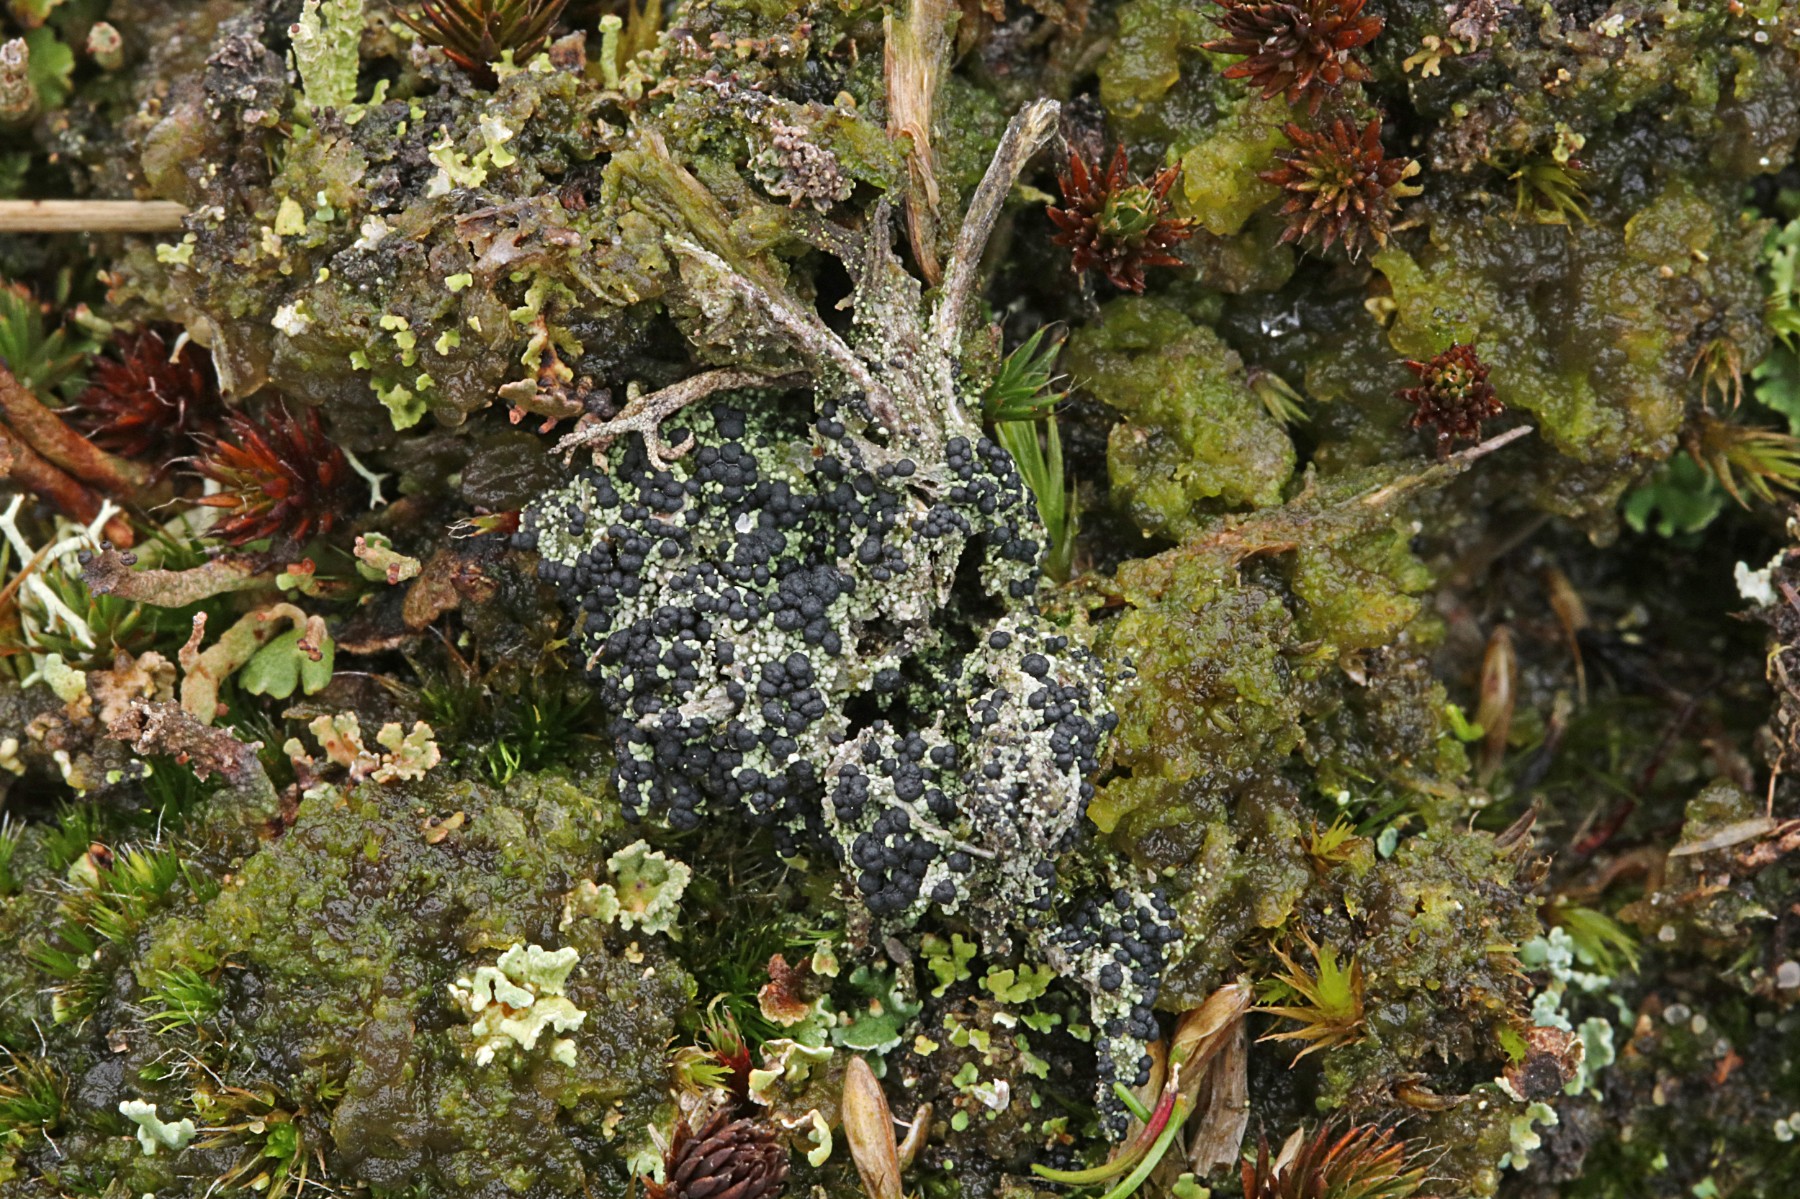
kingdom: Fungi
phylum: Ascomycota
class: Lecanoromycetes
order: Lecanorales
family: Byssolomataceae
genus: Micarea
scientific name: Micarea lignaria
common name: tørve-knaplav
